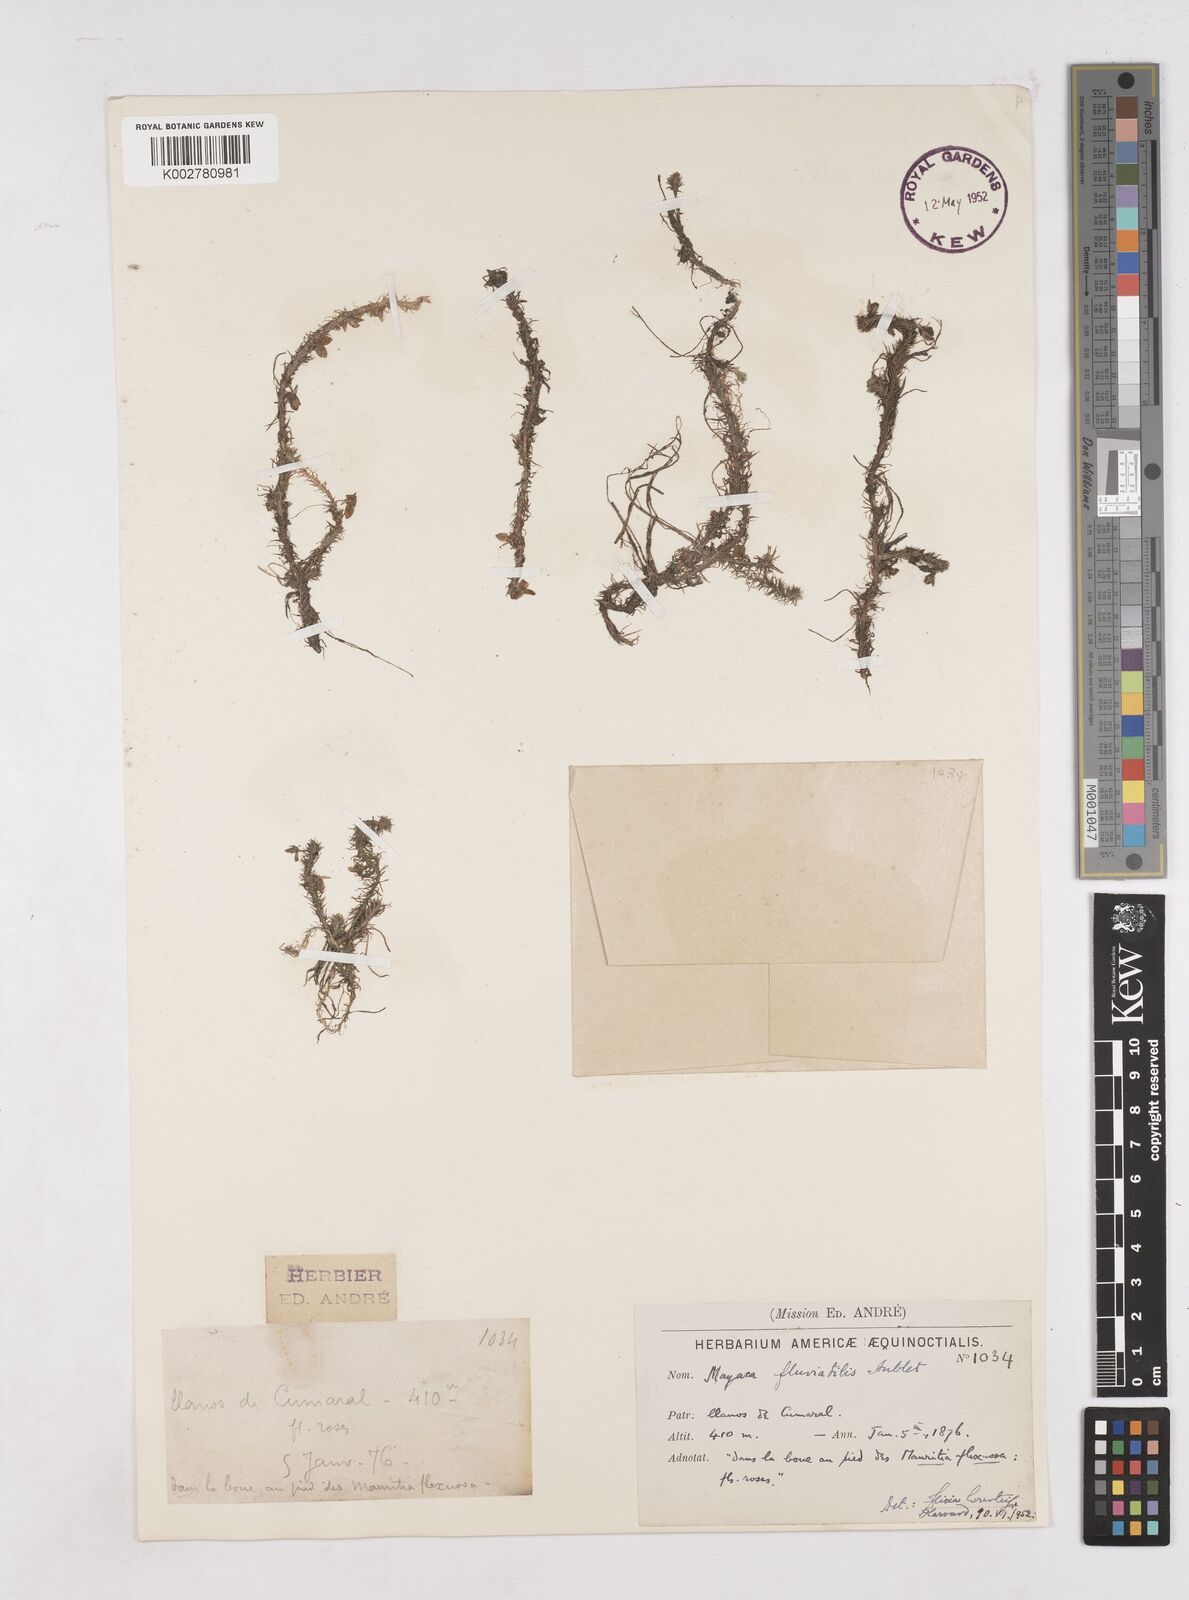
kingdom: Plantae
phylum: Tracheophyta
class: Liliopsida
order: Poales
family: Mayacaceae
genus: Mayaca
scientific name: Mayaca fluviatilis
